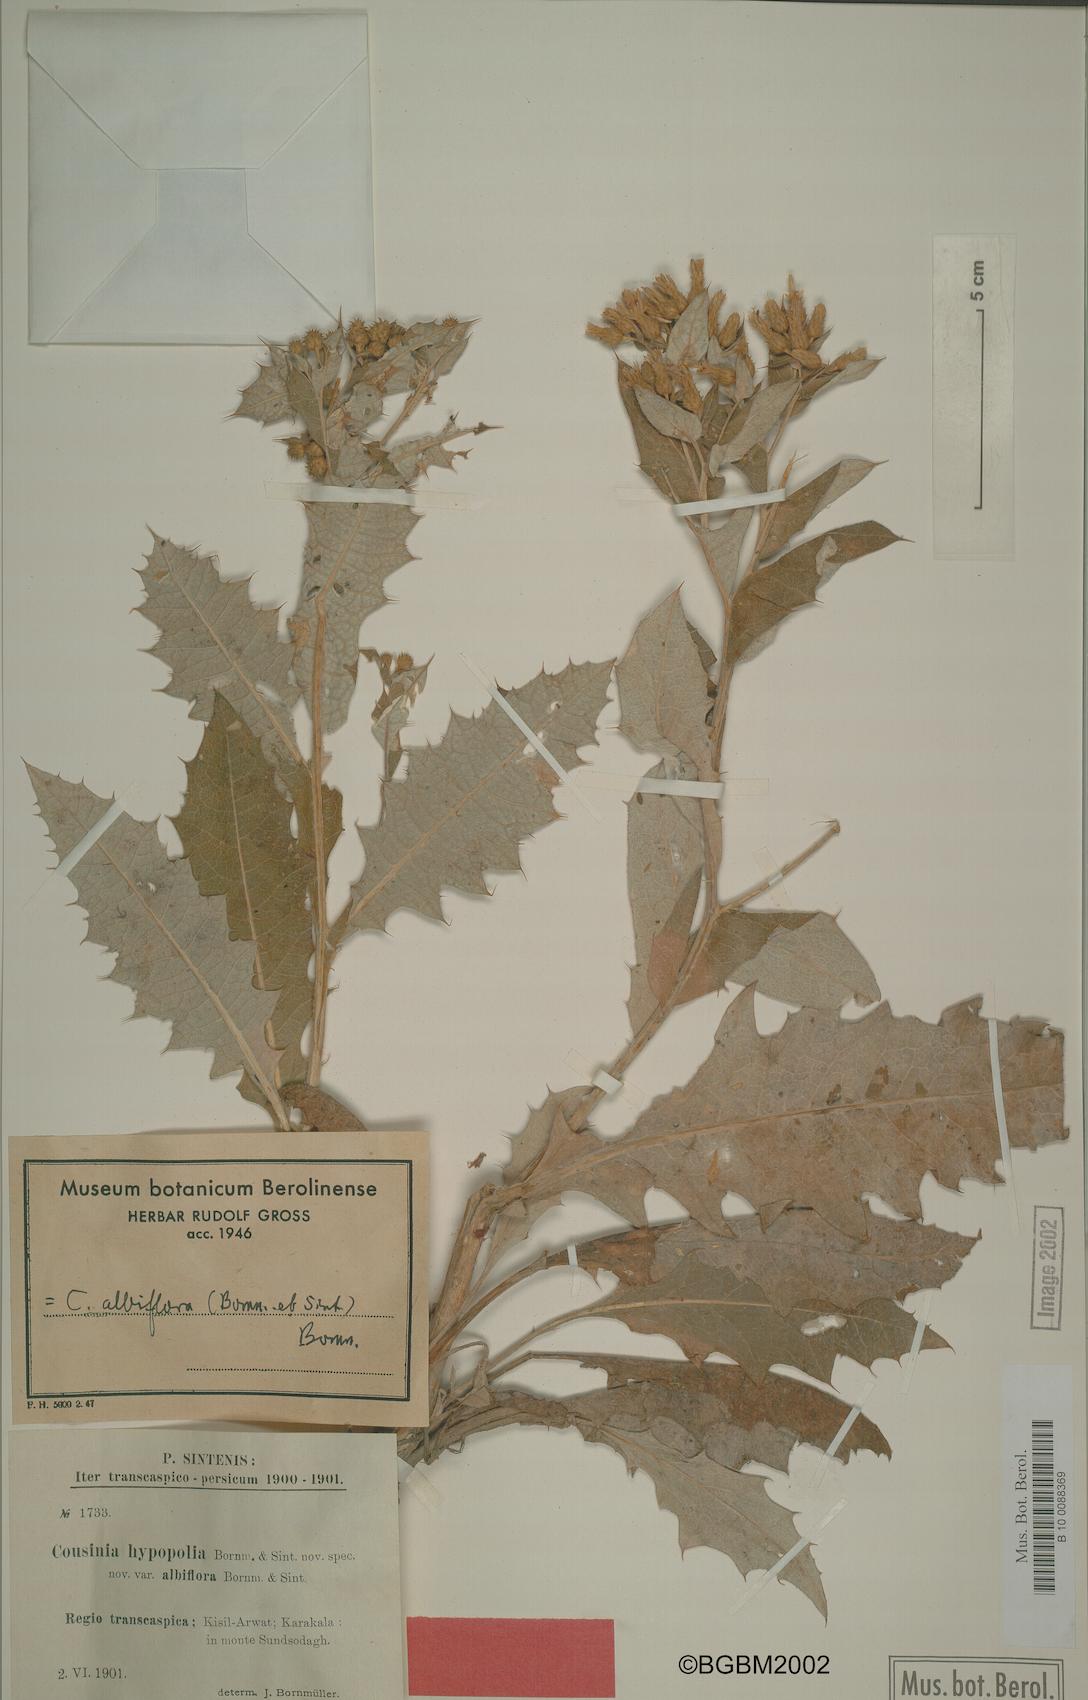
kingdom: Plantae
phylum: Tracheophyta
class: Magnoliopsida
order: Asterales
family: Asteraceae
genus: Cousinia
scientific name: Cousinia albiflora
